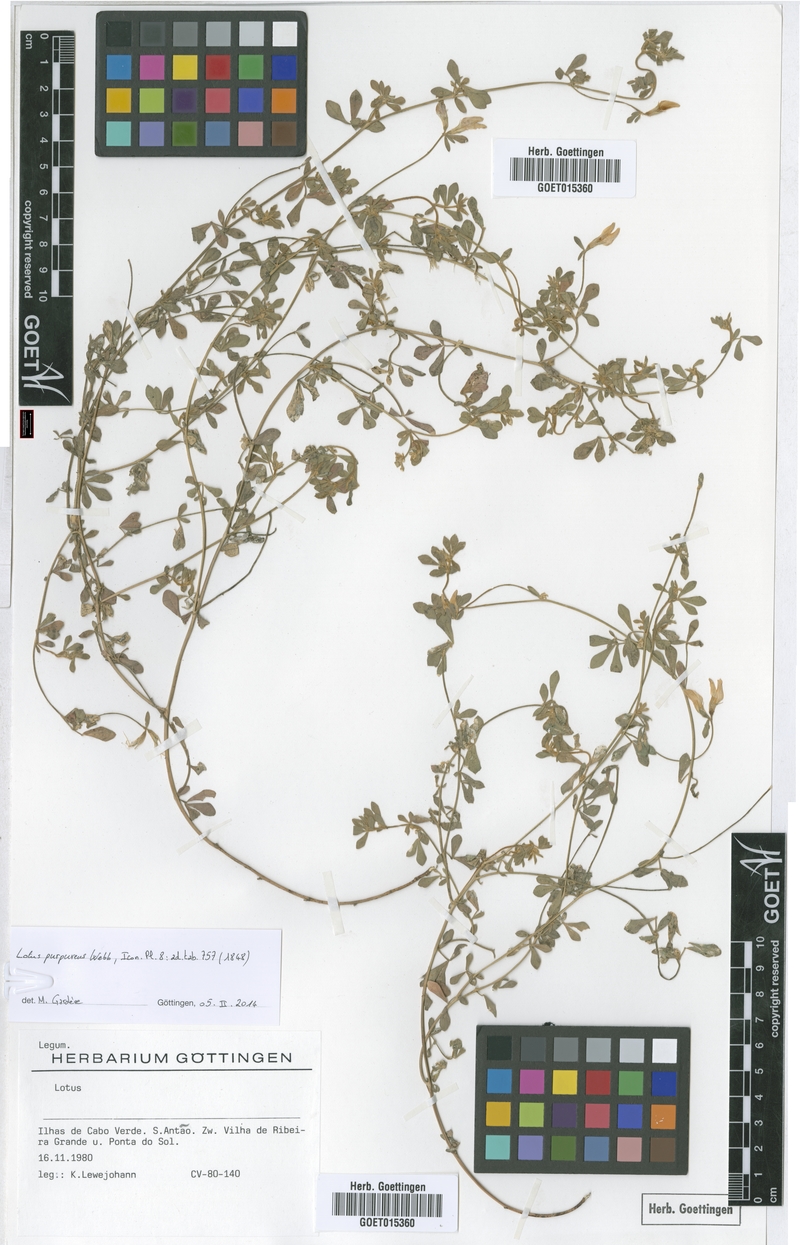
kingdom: Plantae
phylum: Tracheophyta
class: Magnoliopsida
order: Fabales
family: Fabaceae
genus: Lotus
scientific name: Lotus purpureus
